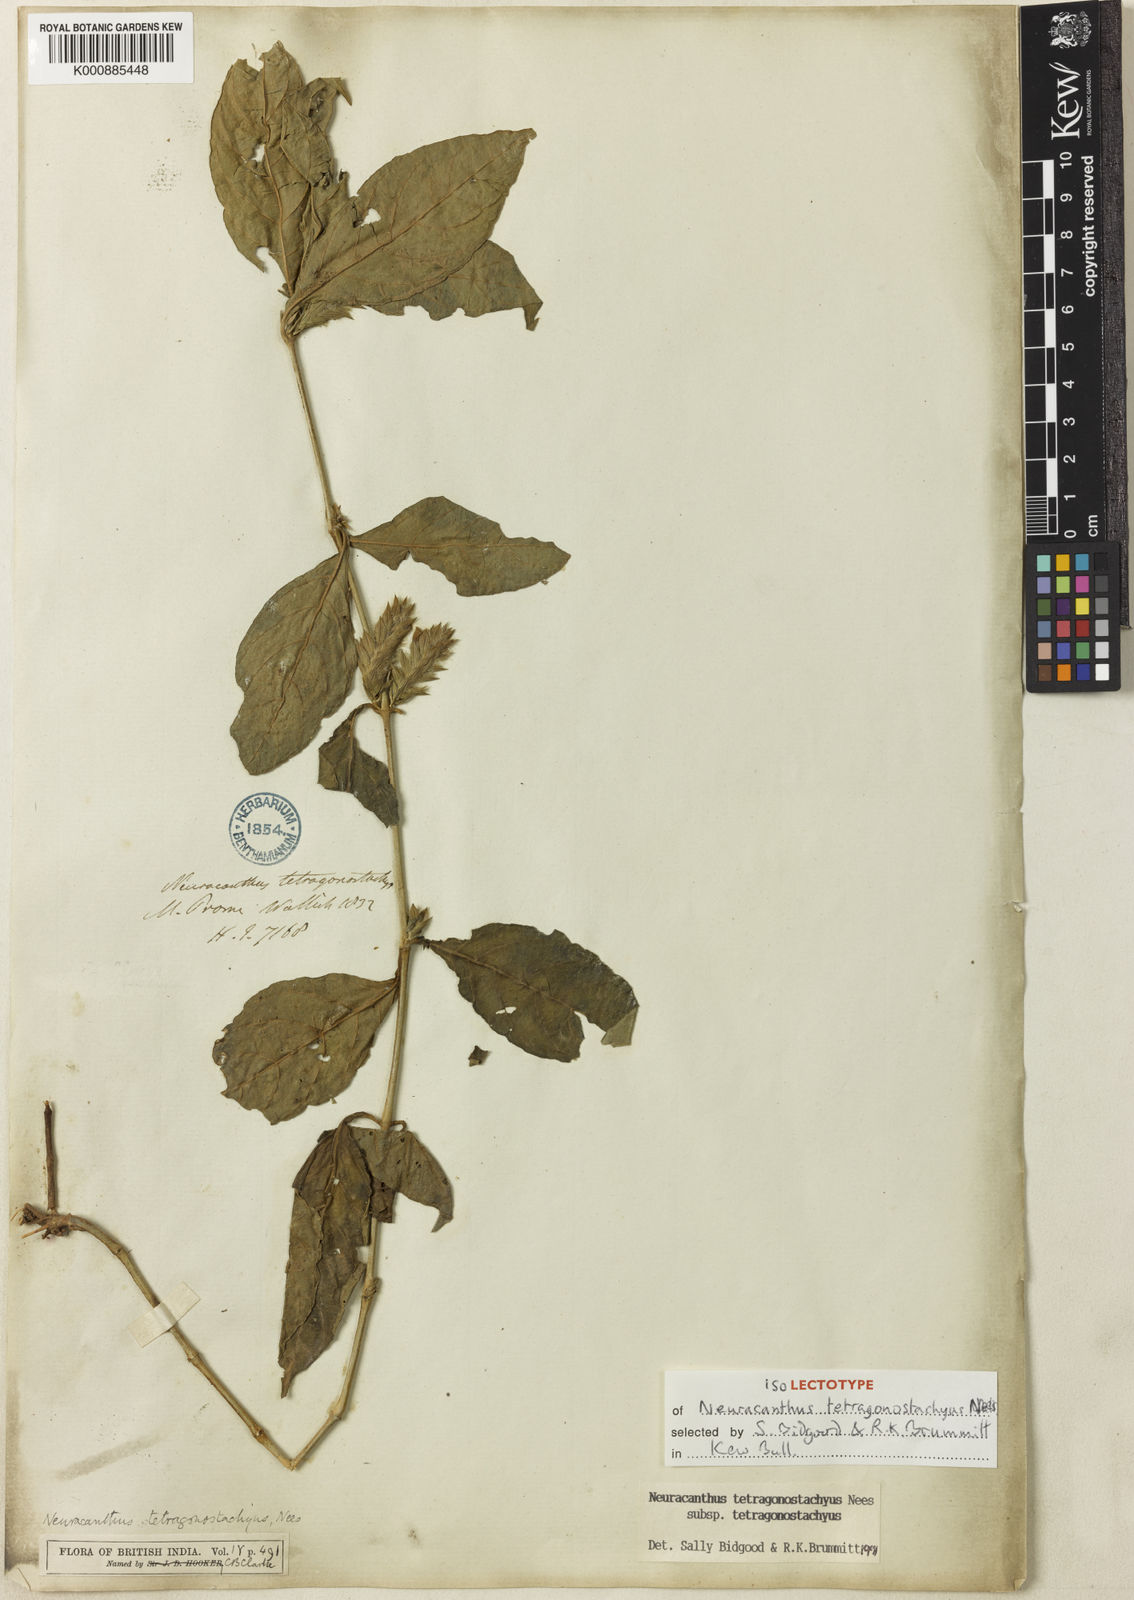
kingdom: Plantae
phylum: Tracheophyta
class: Magnoliopsida
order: Lamiales
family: Acanthaceae
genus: Neuracanthus
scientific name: Neuracanthus tetragonostachyus
